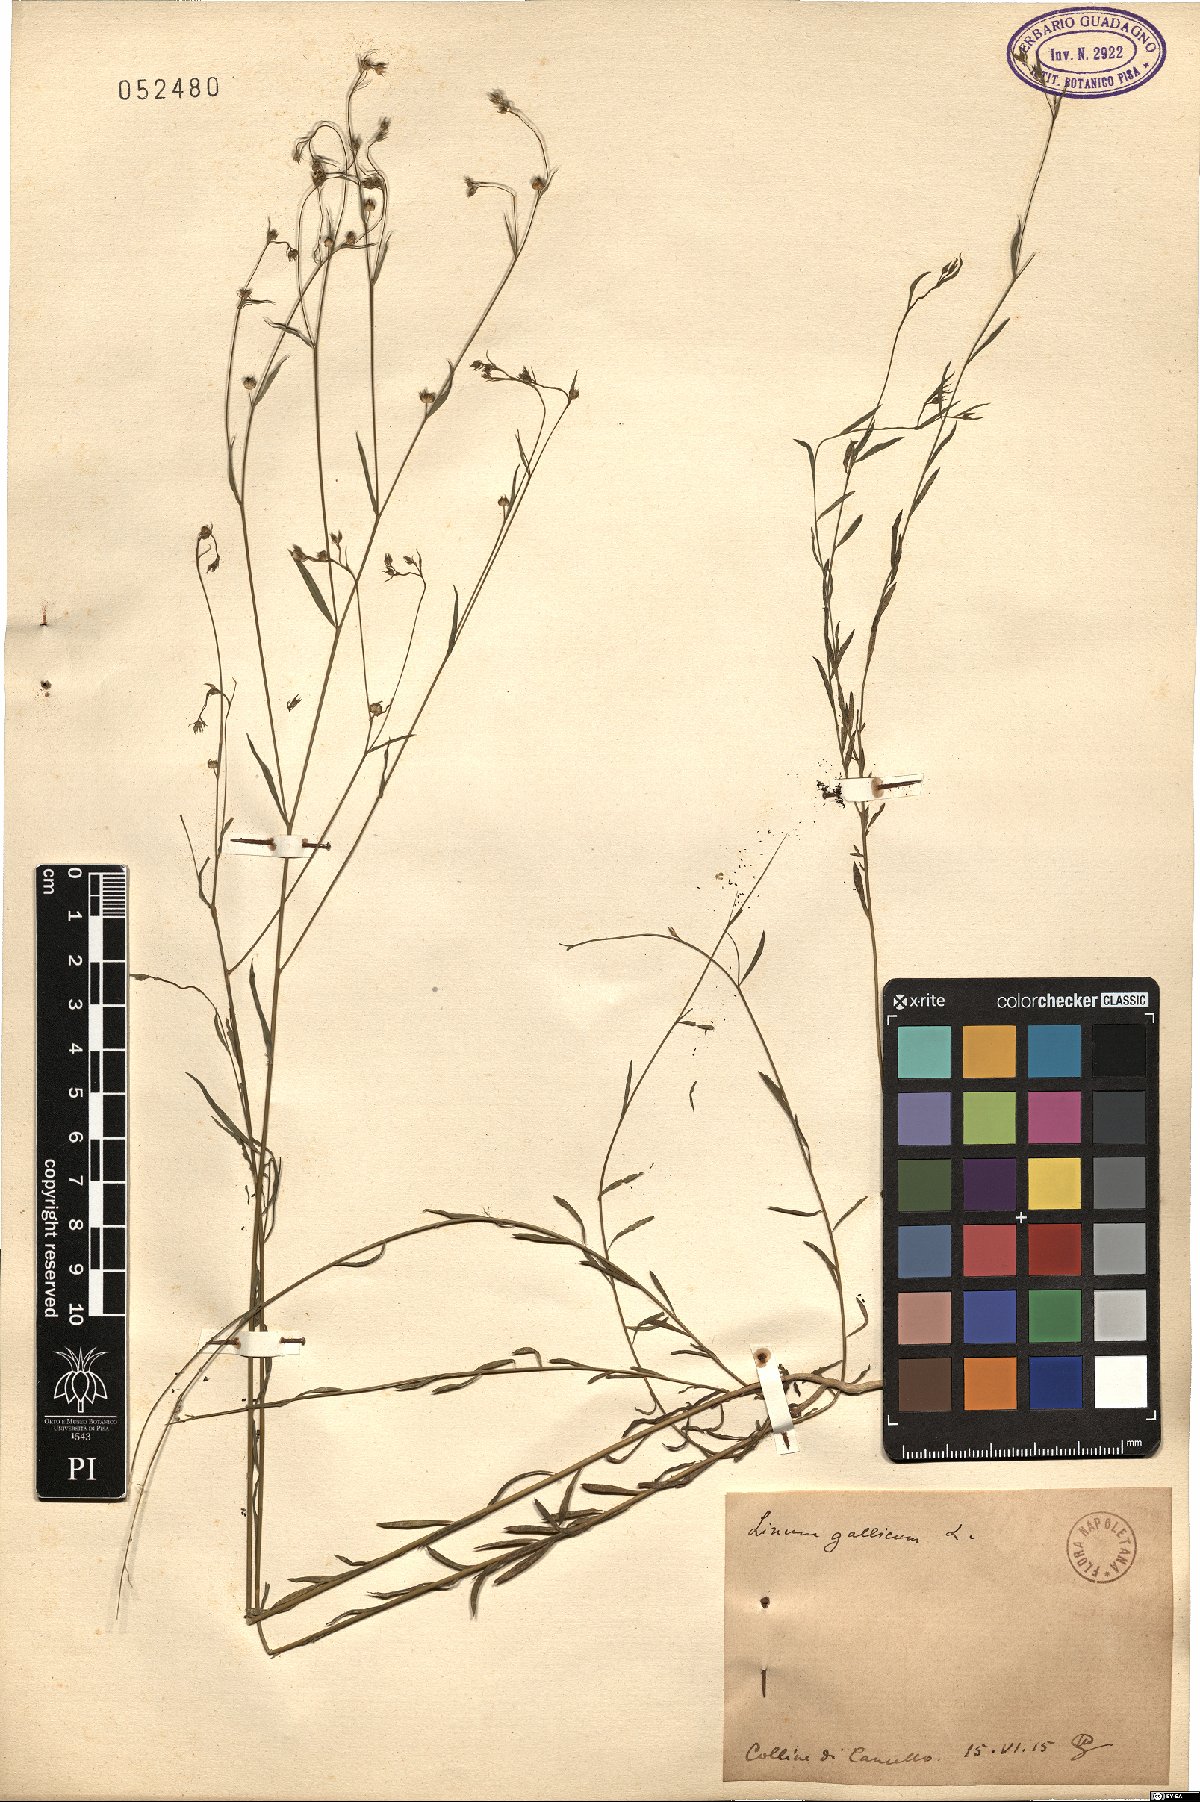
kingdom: Plantae
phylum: Tracheophyta
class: Magnoliopsida
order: Malpighiales
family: Linaceae
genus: Linum
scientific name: Linum trigynum
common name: French flax
